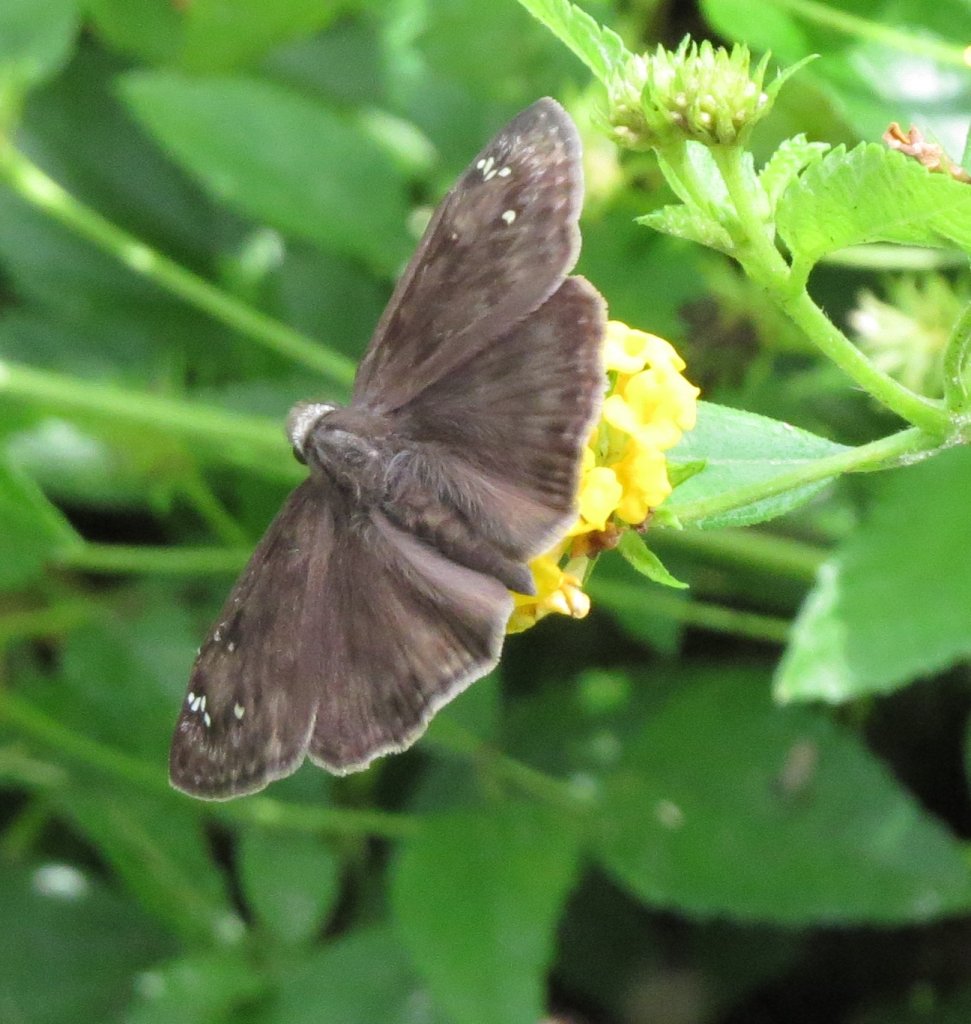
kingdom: Animalia
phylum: Arthropoda
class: Insecta
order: Lepidoptera
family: Hesperiidae
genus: Erynnis
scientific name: Erynnis zarucco
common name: Zarucco Duskywing
